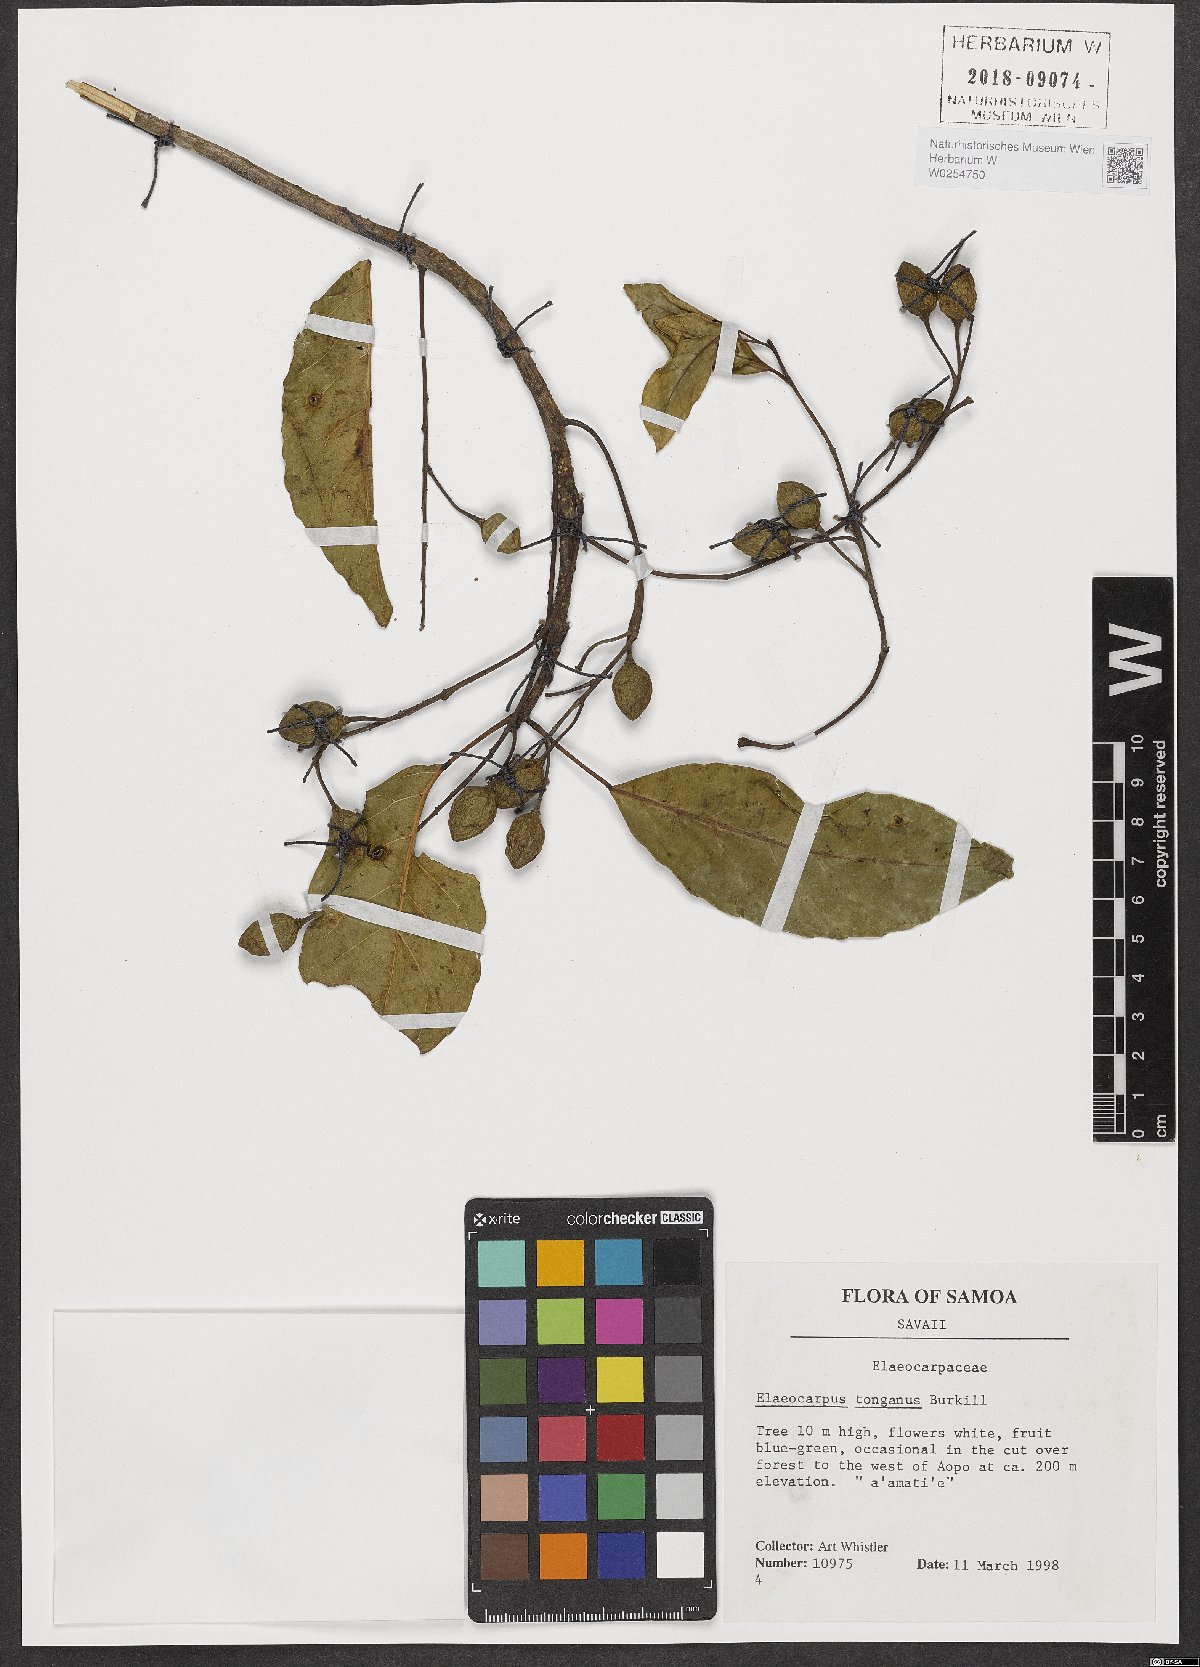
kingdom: Plantae
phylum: Tracheophyta
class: Magnoliopsida
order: Oxalidales
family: Elaeocarpaceae
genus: Elaeocarpus
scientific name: Elaeocarpus floridanus
